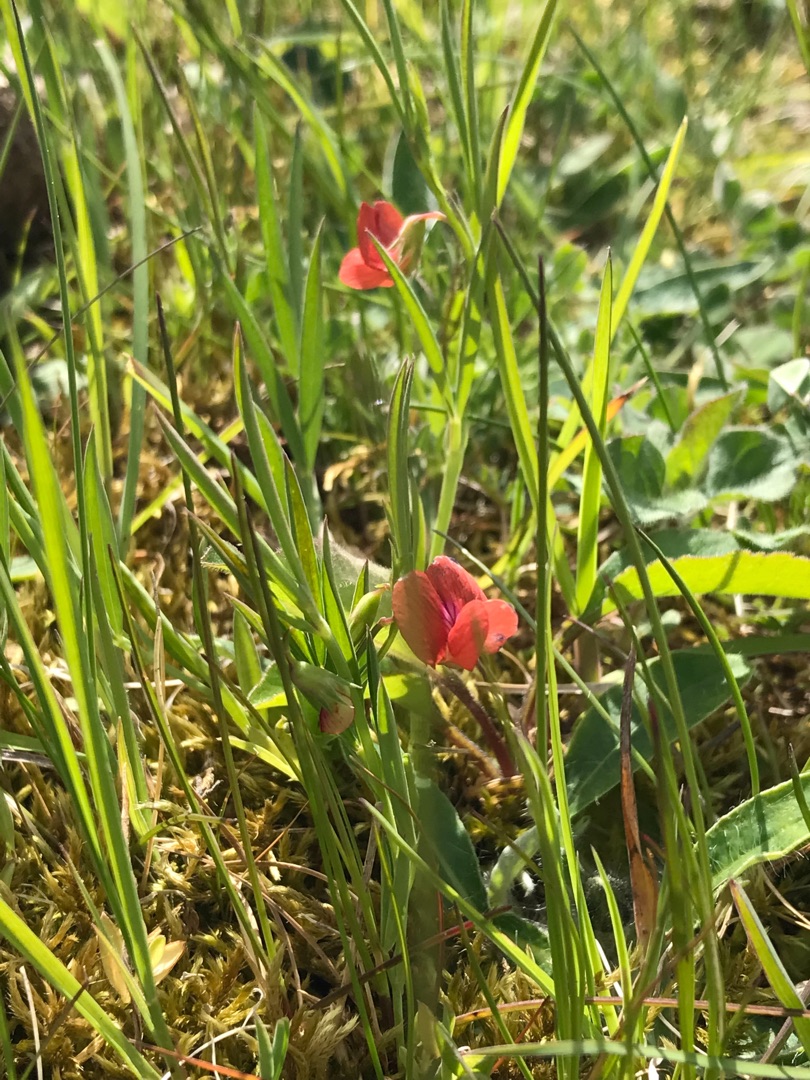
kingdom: Plantae
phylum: Tracheophyta
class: Magnoliopsida
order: Fabales
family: Fabaceae
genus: Lathyrus
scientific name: Lathyrus sphaericus
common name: Enblomstret fladbælg
